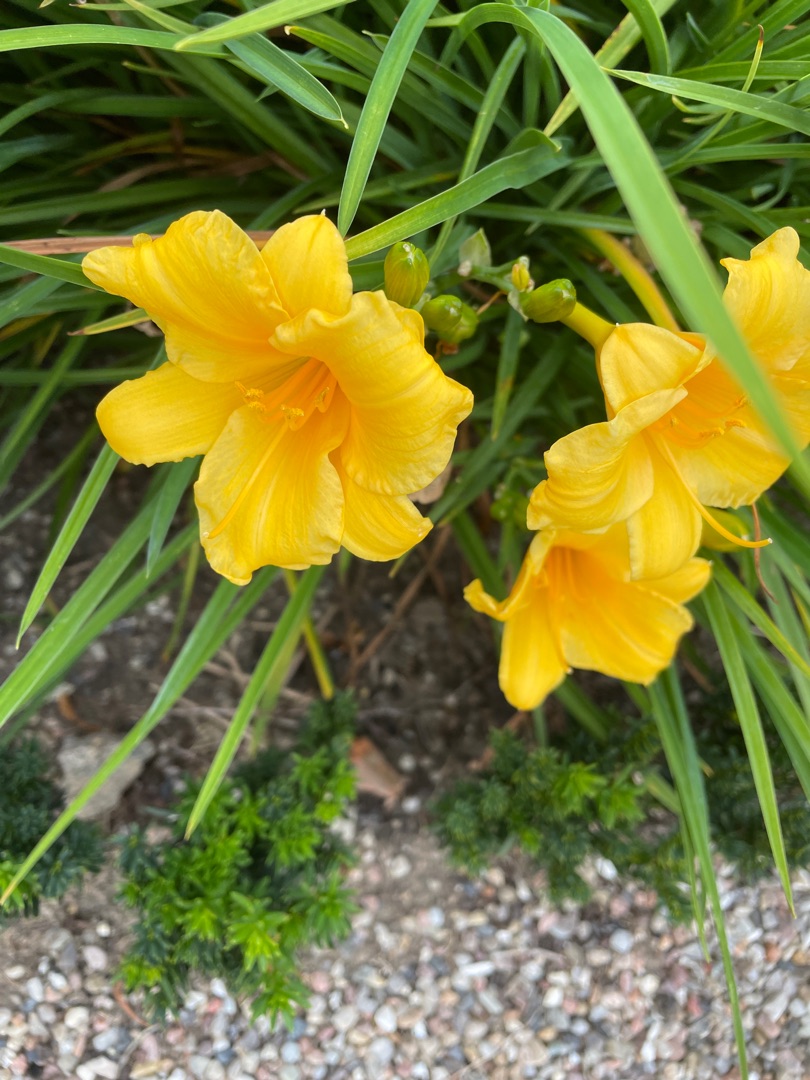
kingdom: Plantae
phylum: Tracheophyta
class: Liliopsida
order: Asparagales
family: Asphodelaceae
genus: Hemerocallis
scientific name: Hemerocallis lilioasphodelus
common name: Gul daglilje
